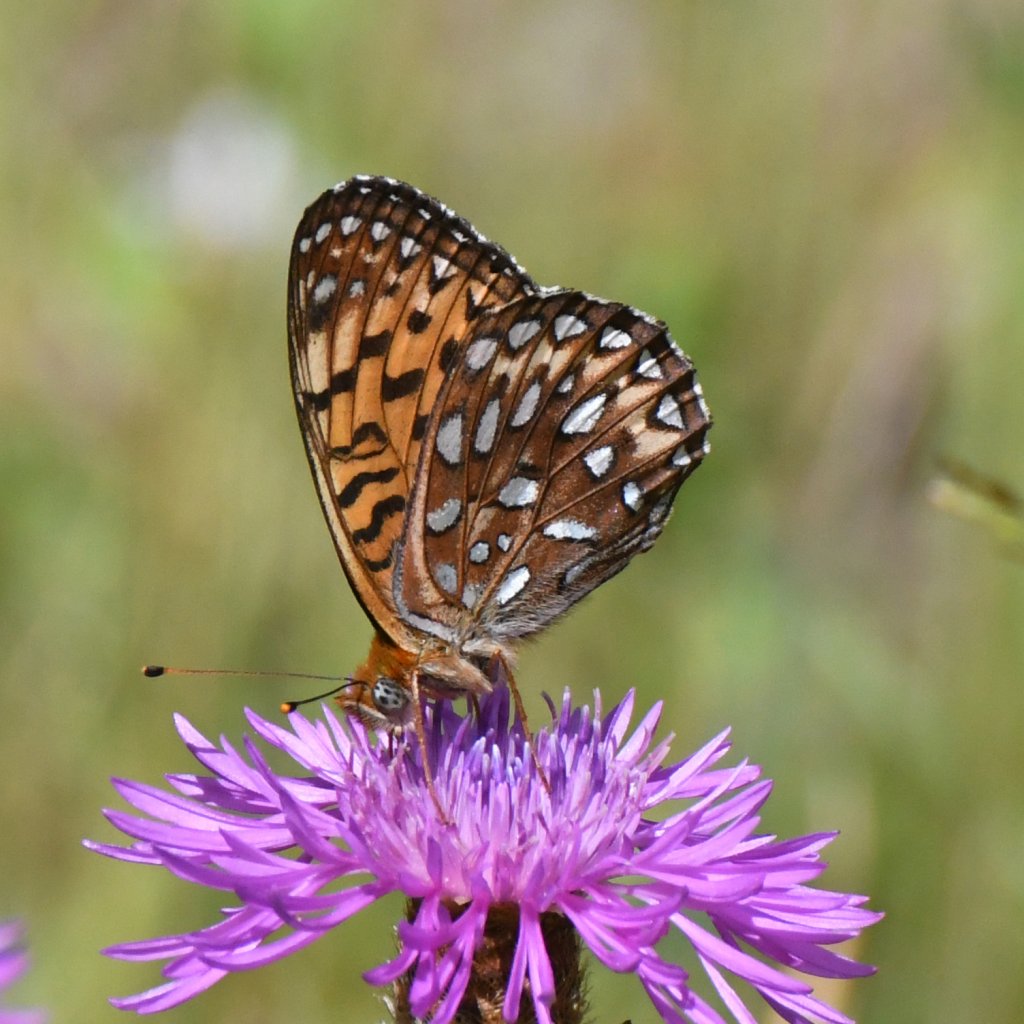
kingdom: Animalia
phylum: Arthropoda
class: Insecta
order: Lepidoptera
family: Nymphalidae
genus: Speyeria
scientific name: Speyeria atlantis
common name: Atlantis Fritillary
